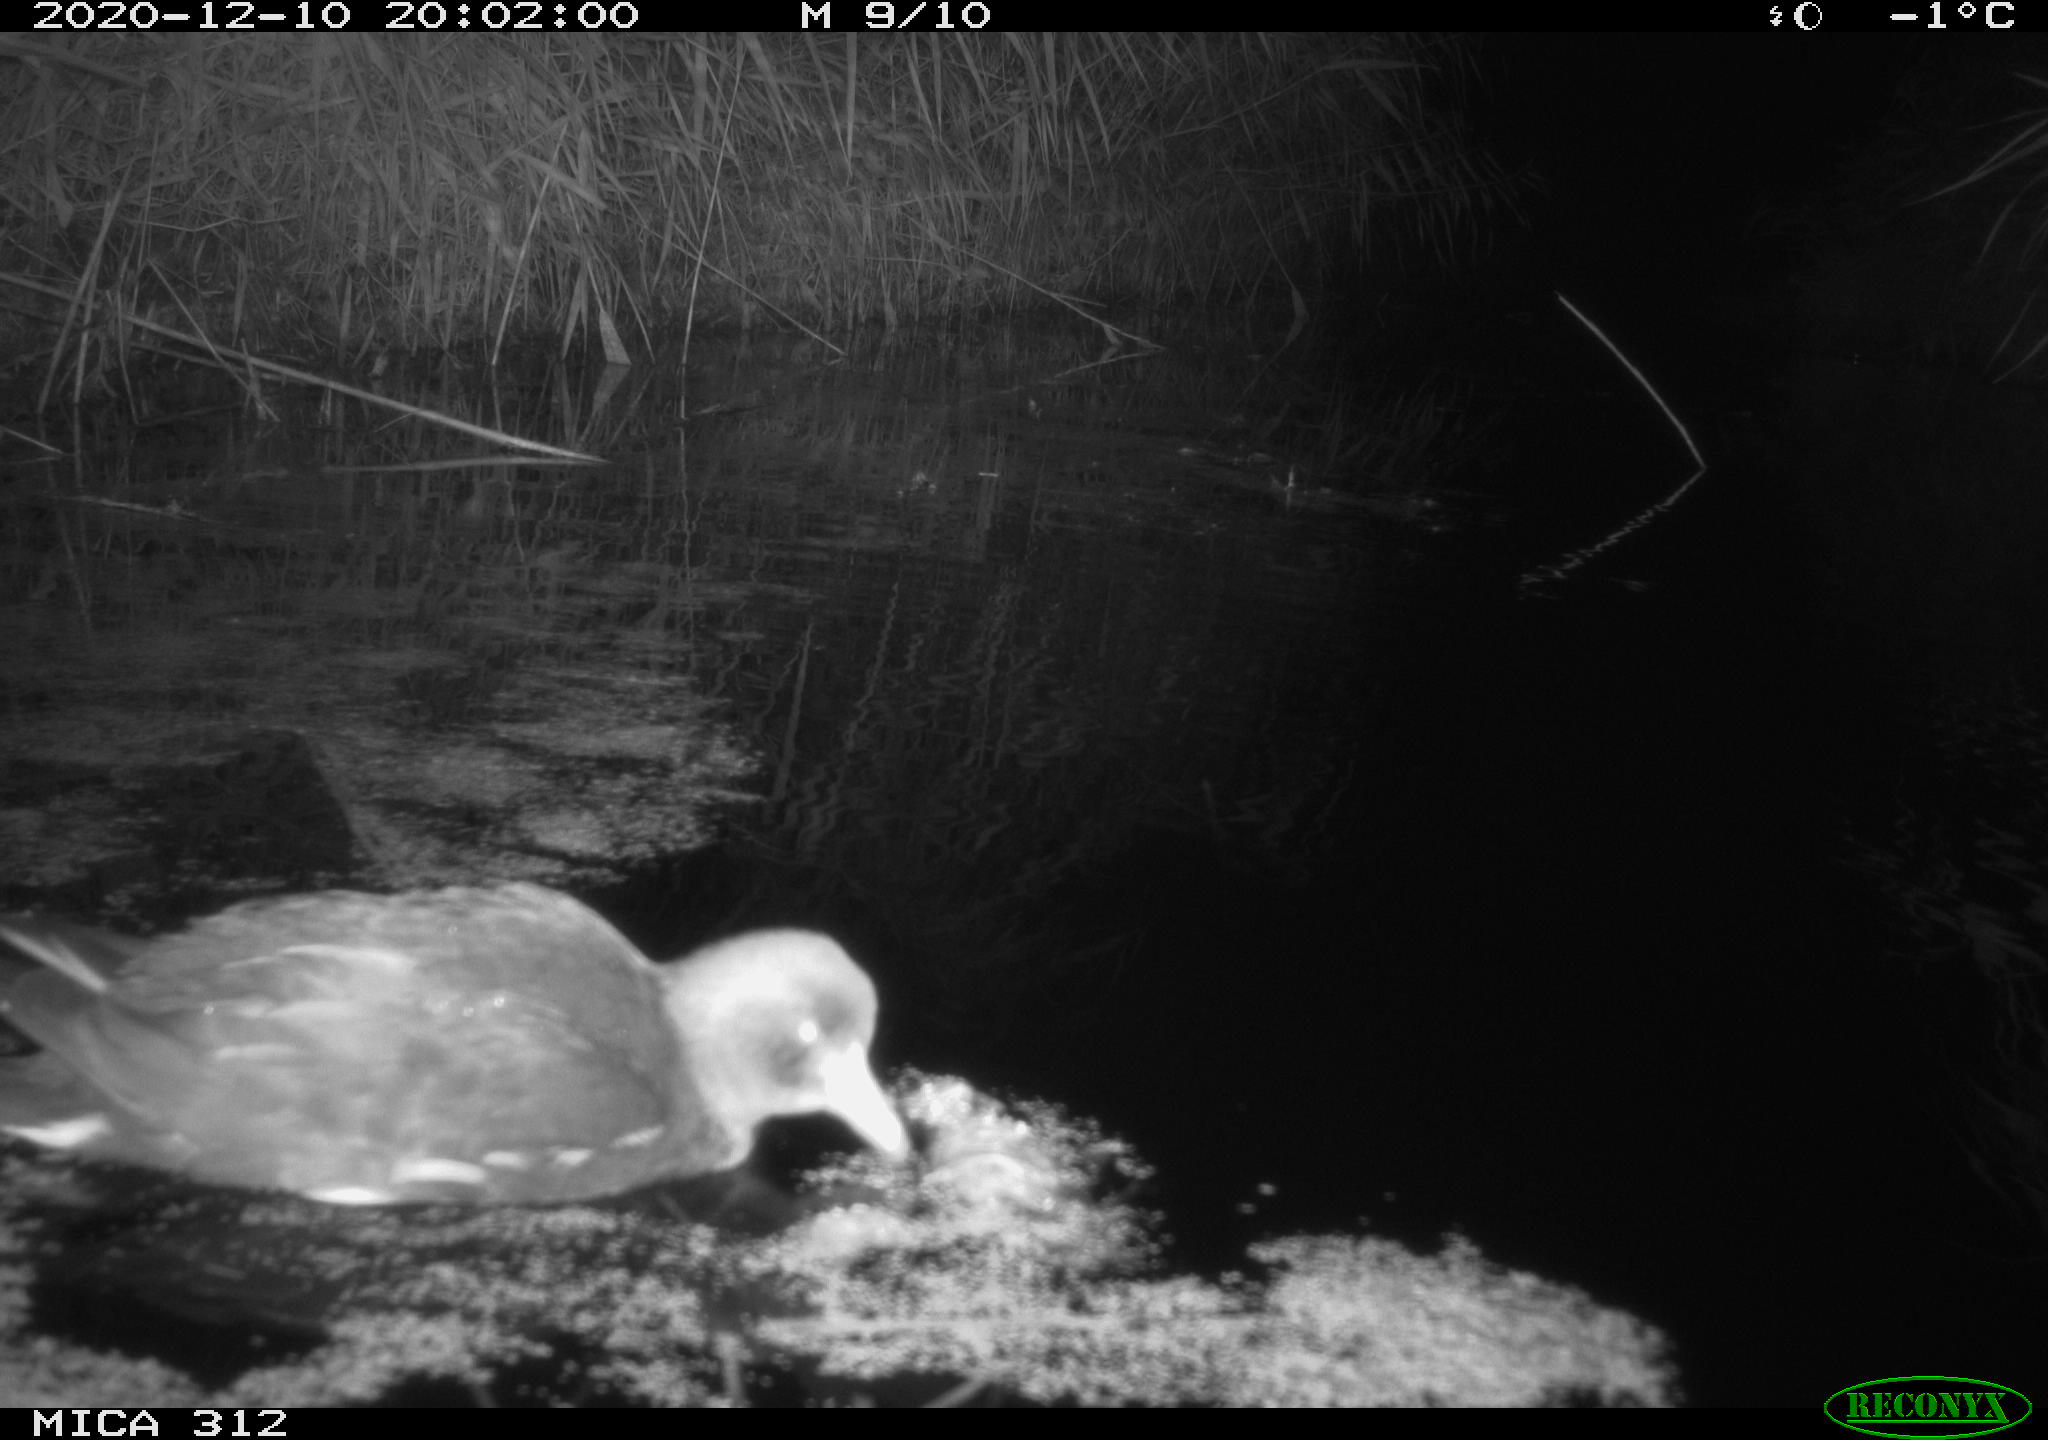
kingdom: Animalia
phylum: Chordata
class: Aves
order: Gruiformes
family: Rallidae
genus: Gallinula
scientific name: Gallinula chloropus
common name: Common moorhen
